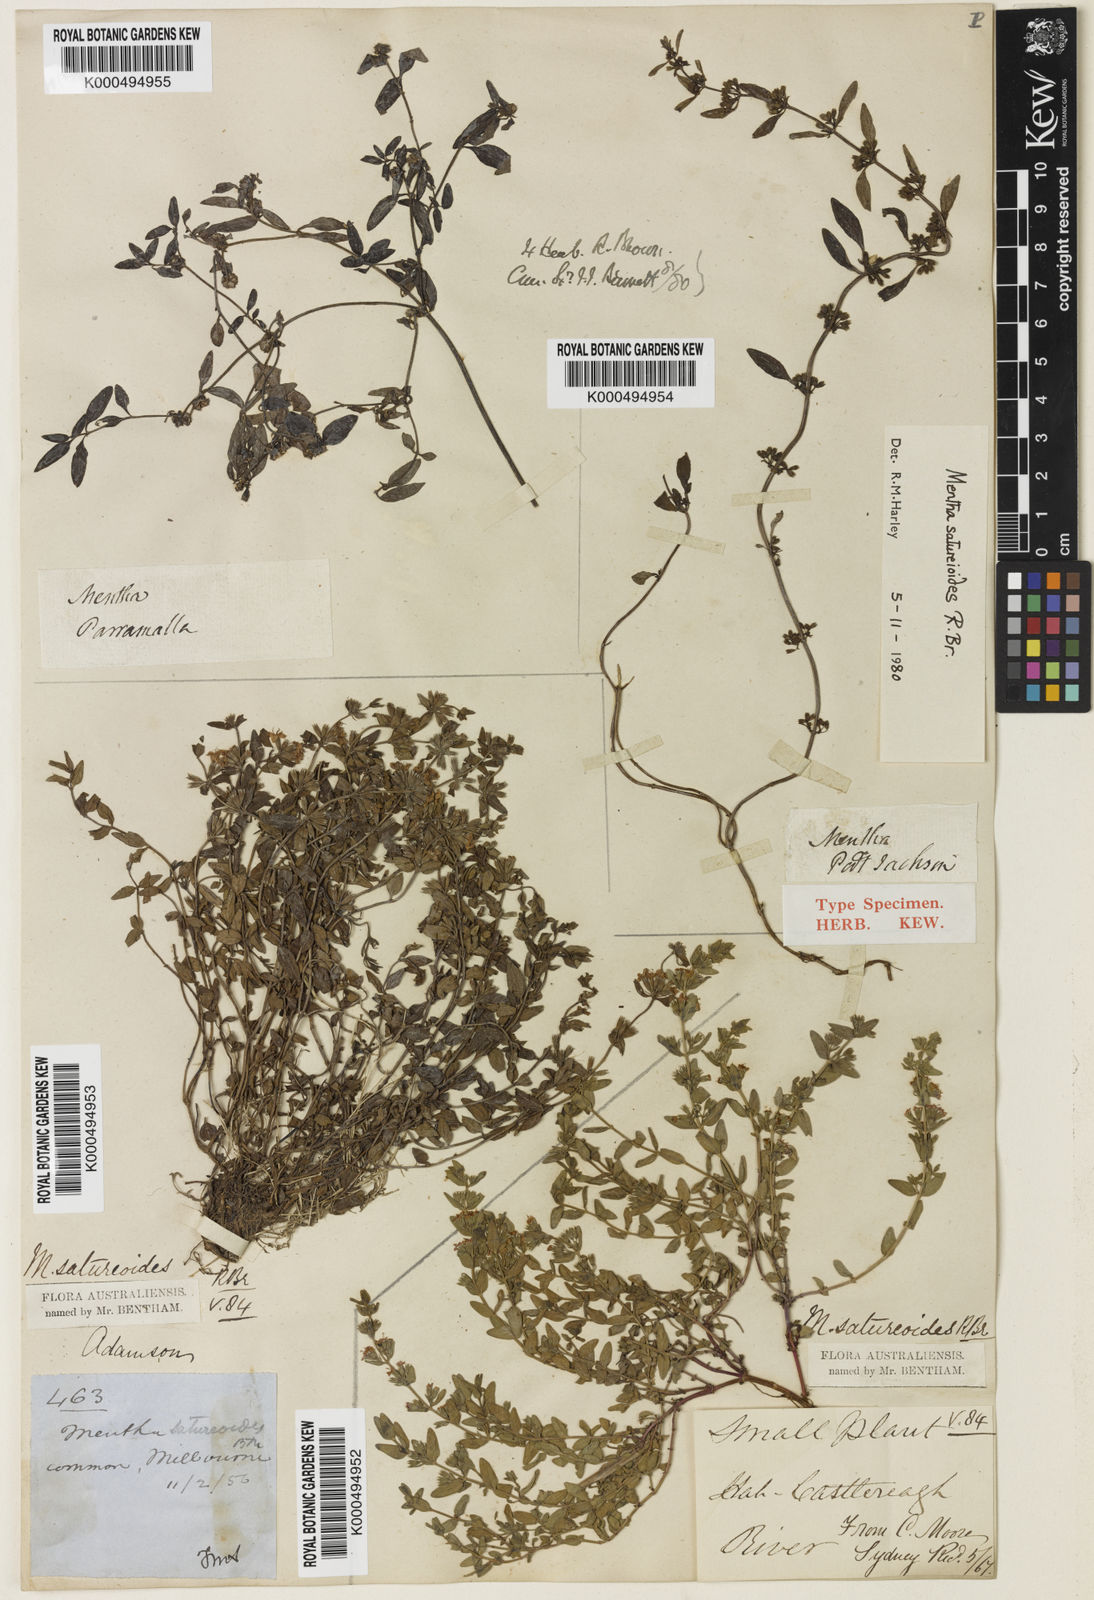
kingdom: Plantae
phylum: Tracheophyta
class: Magnoliopsida
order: Lamiales
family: Lamiaceae
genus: Mentha
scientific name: Mentha satureioides
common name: Brisbane pennyroyal
